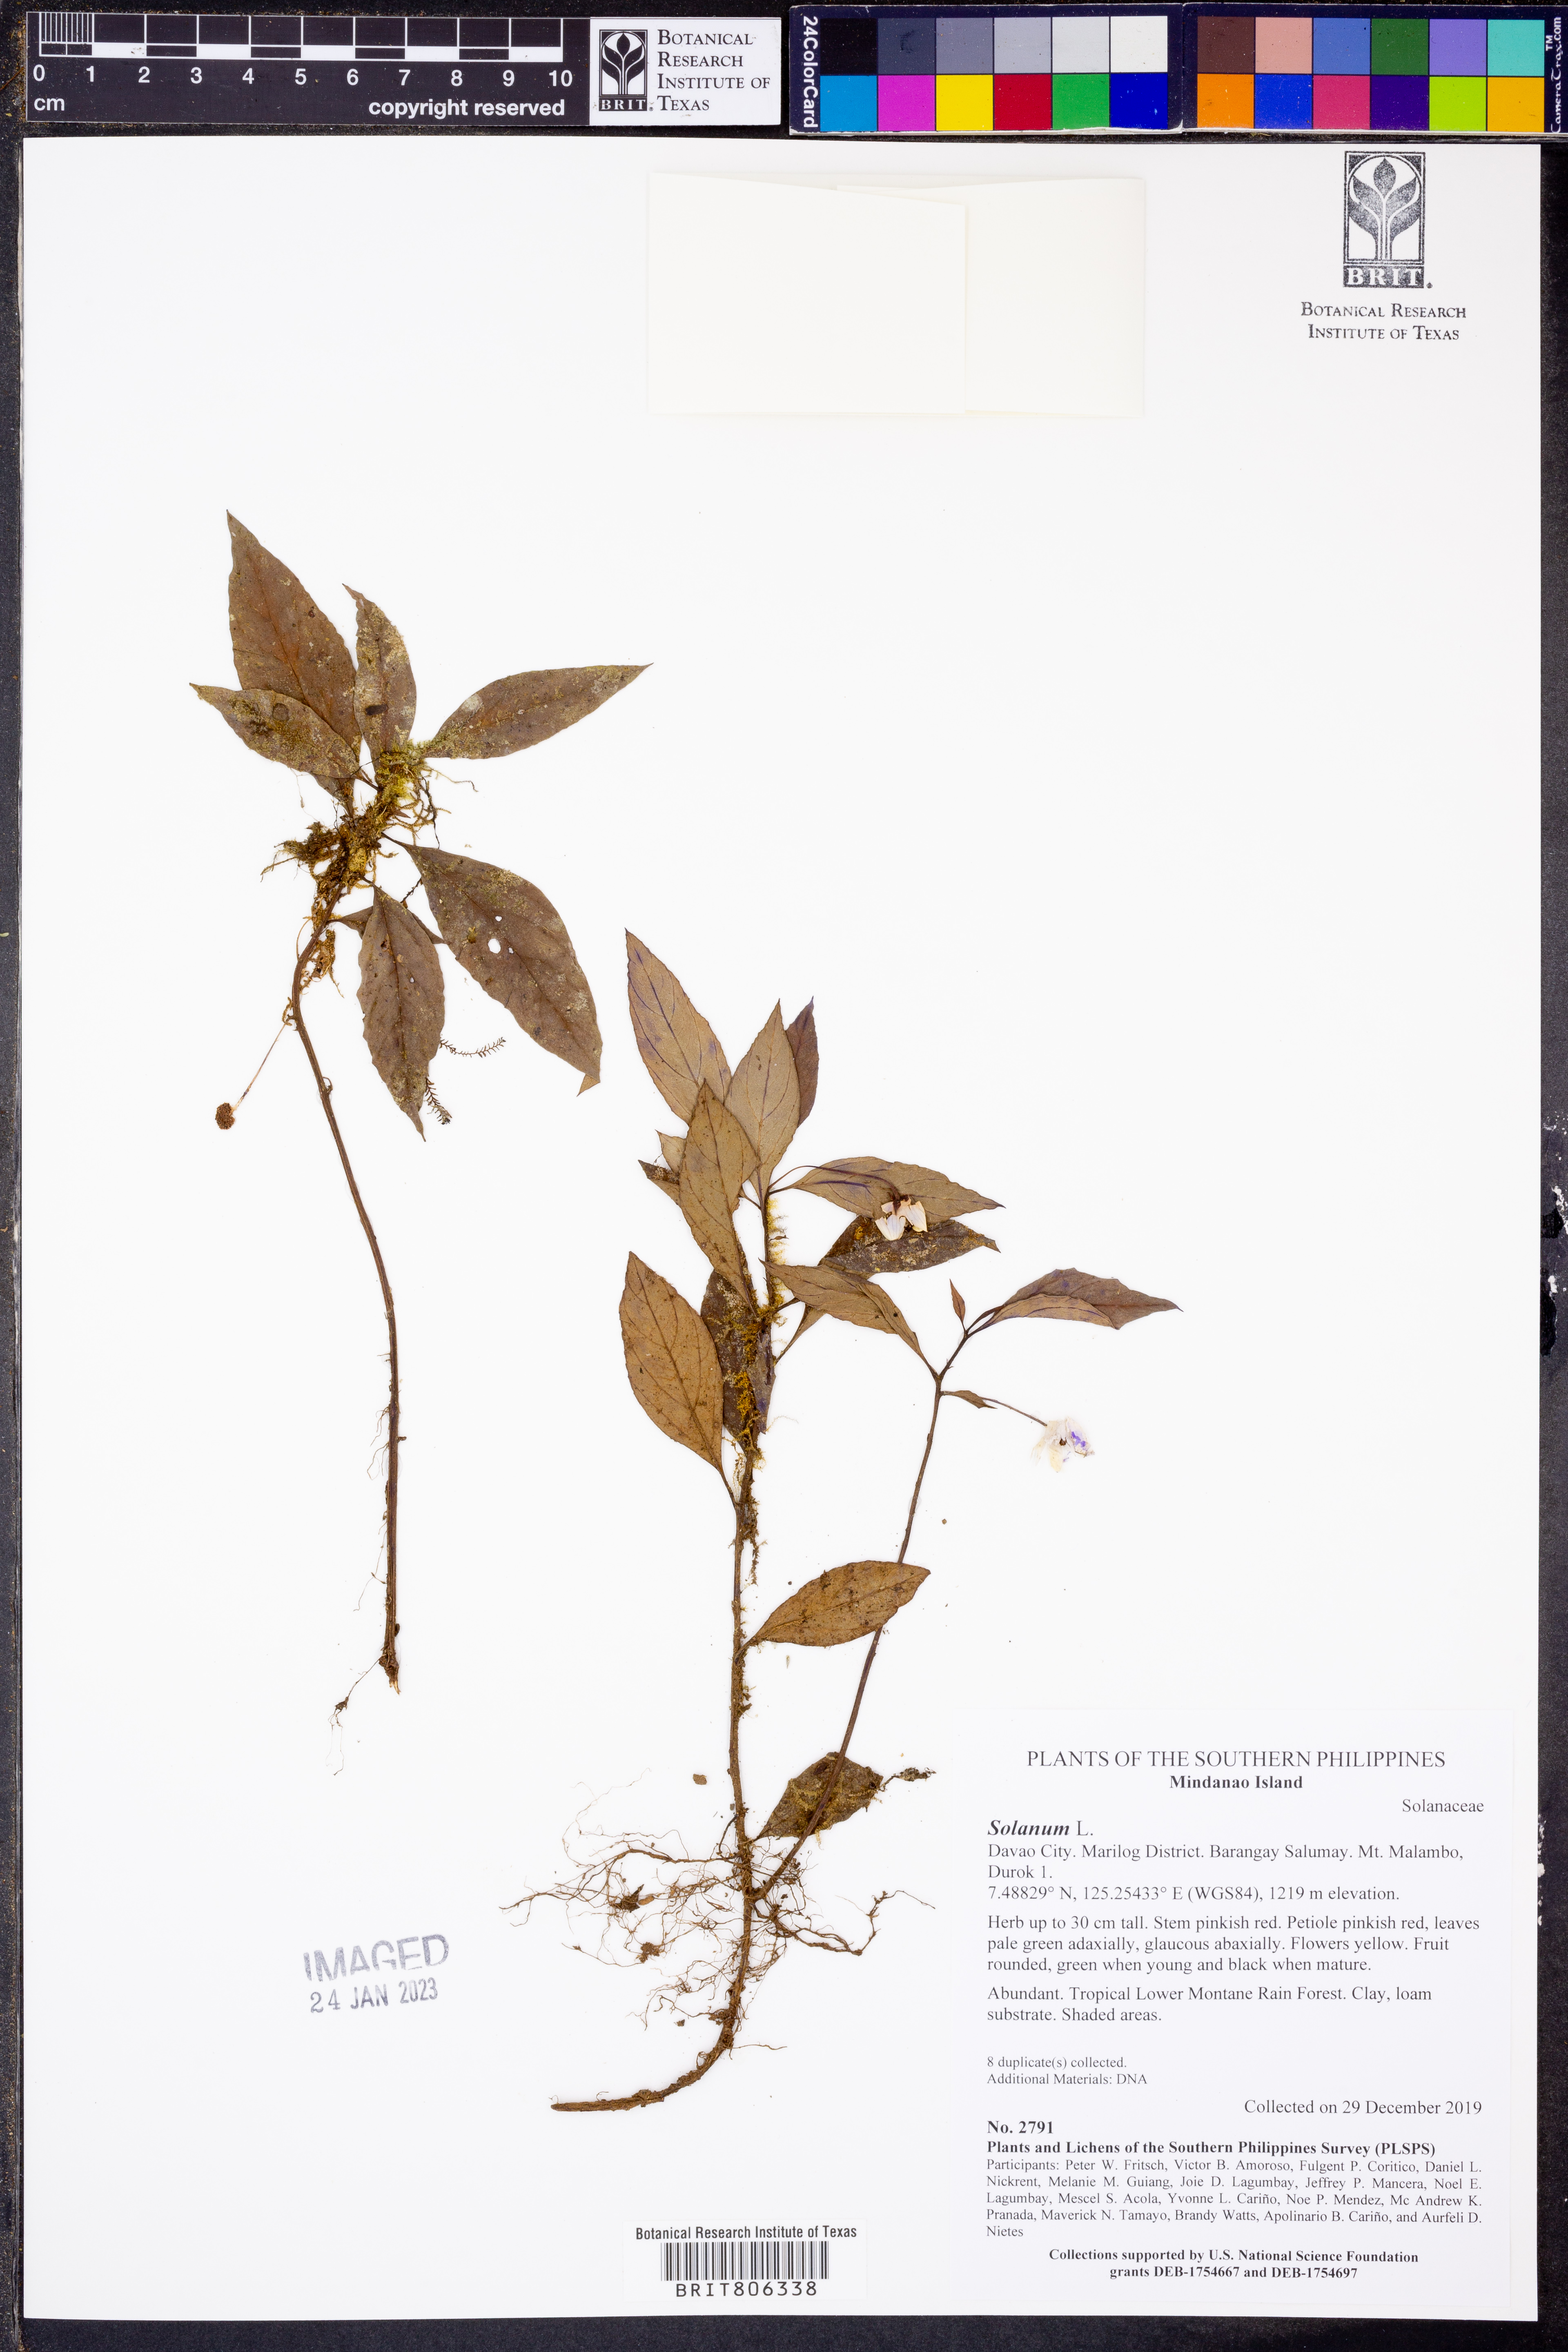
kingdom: Plantae
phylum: Tracheophyta
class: Magnoliopsida
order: Solanales
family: Solanaceae
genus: Solanum
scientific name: Solanum
